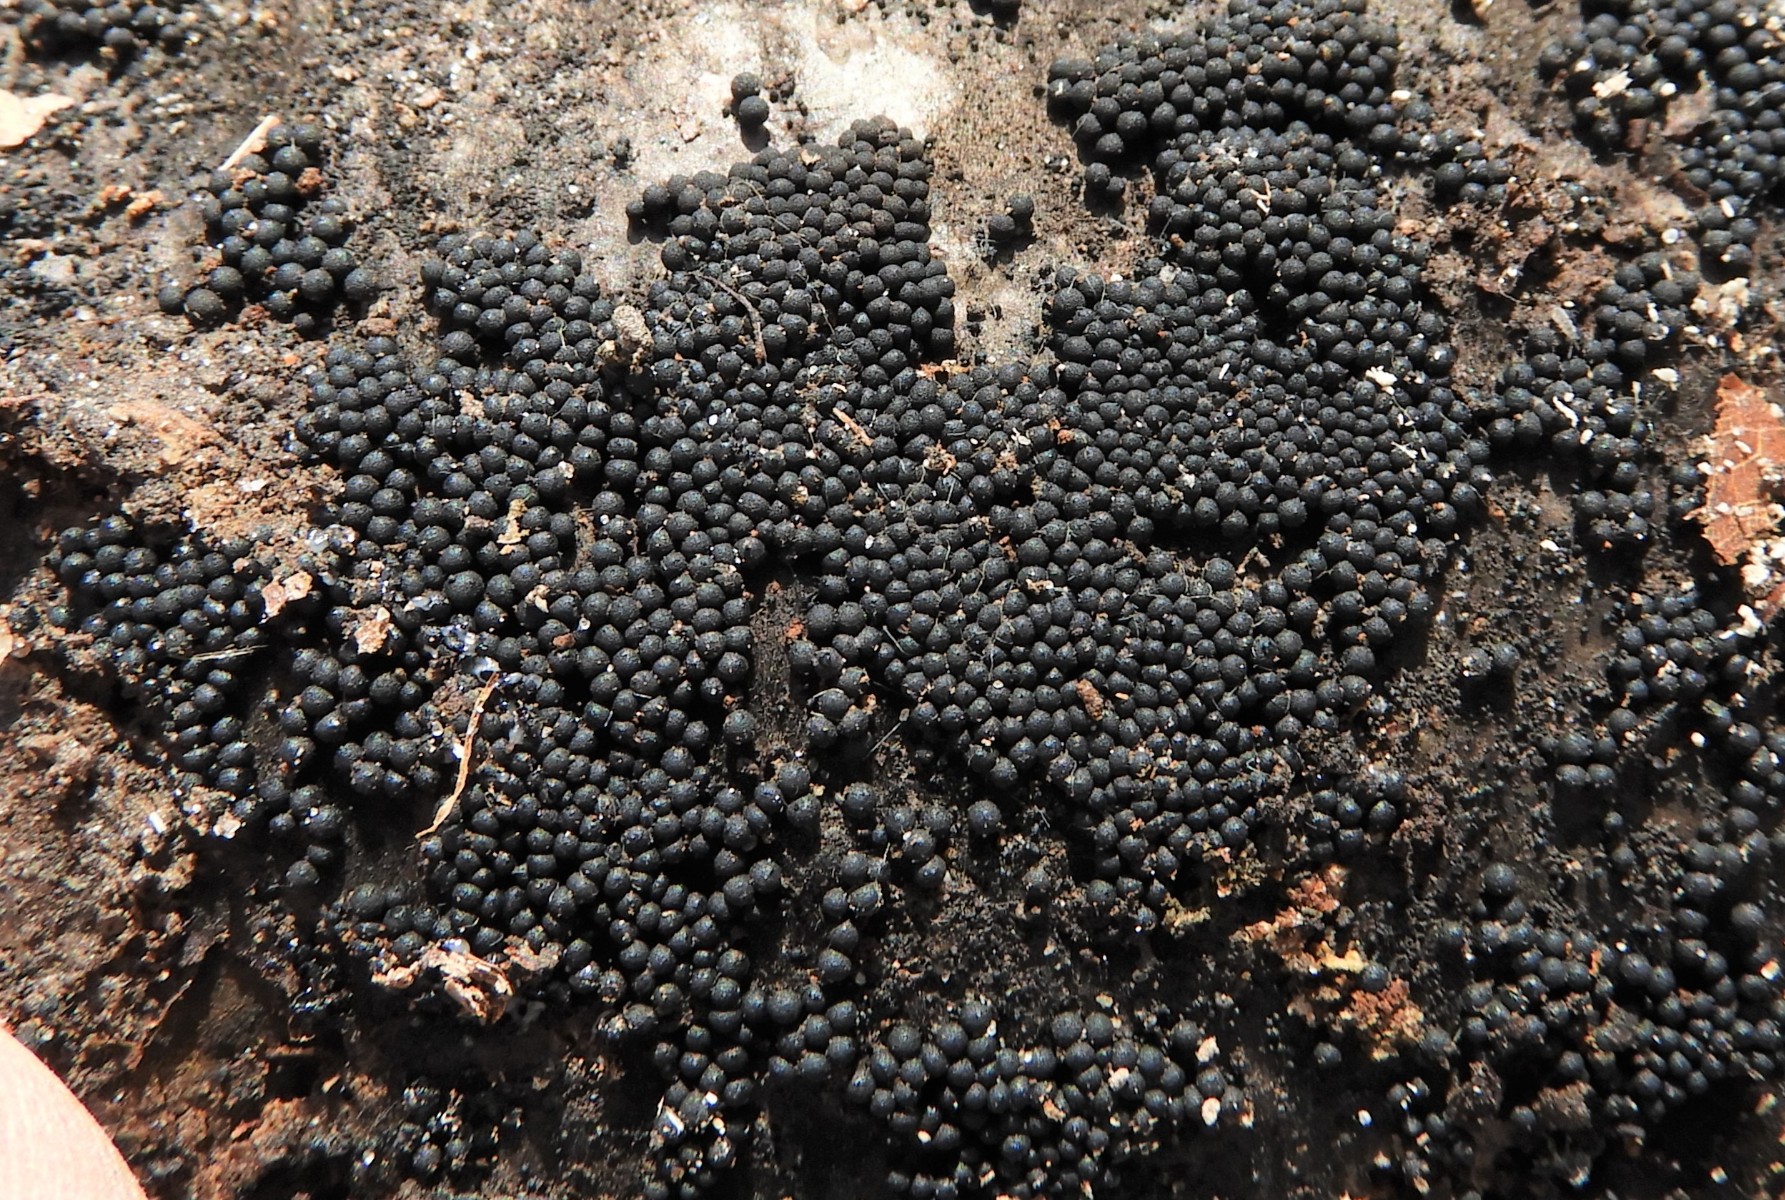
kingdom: Fungi
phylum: Ascomycota
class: Sordariomycetes
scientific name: Sordariomycetes
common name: kernesvampklassen
